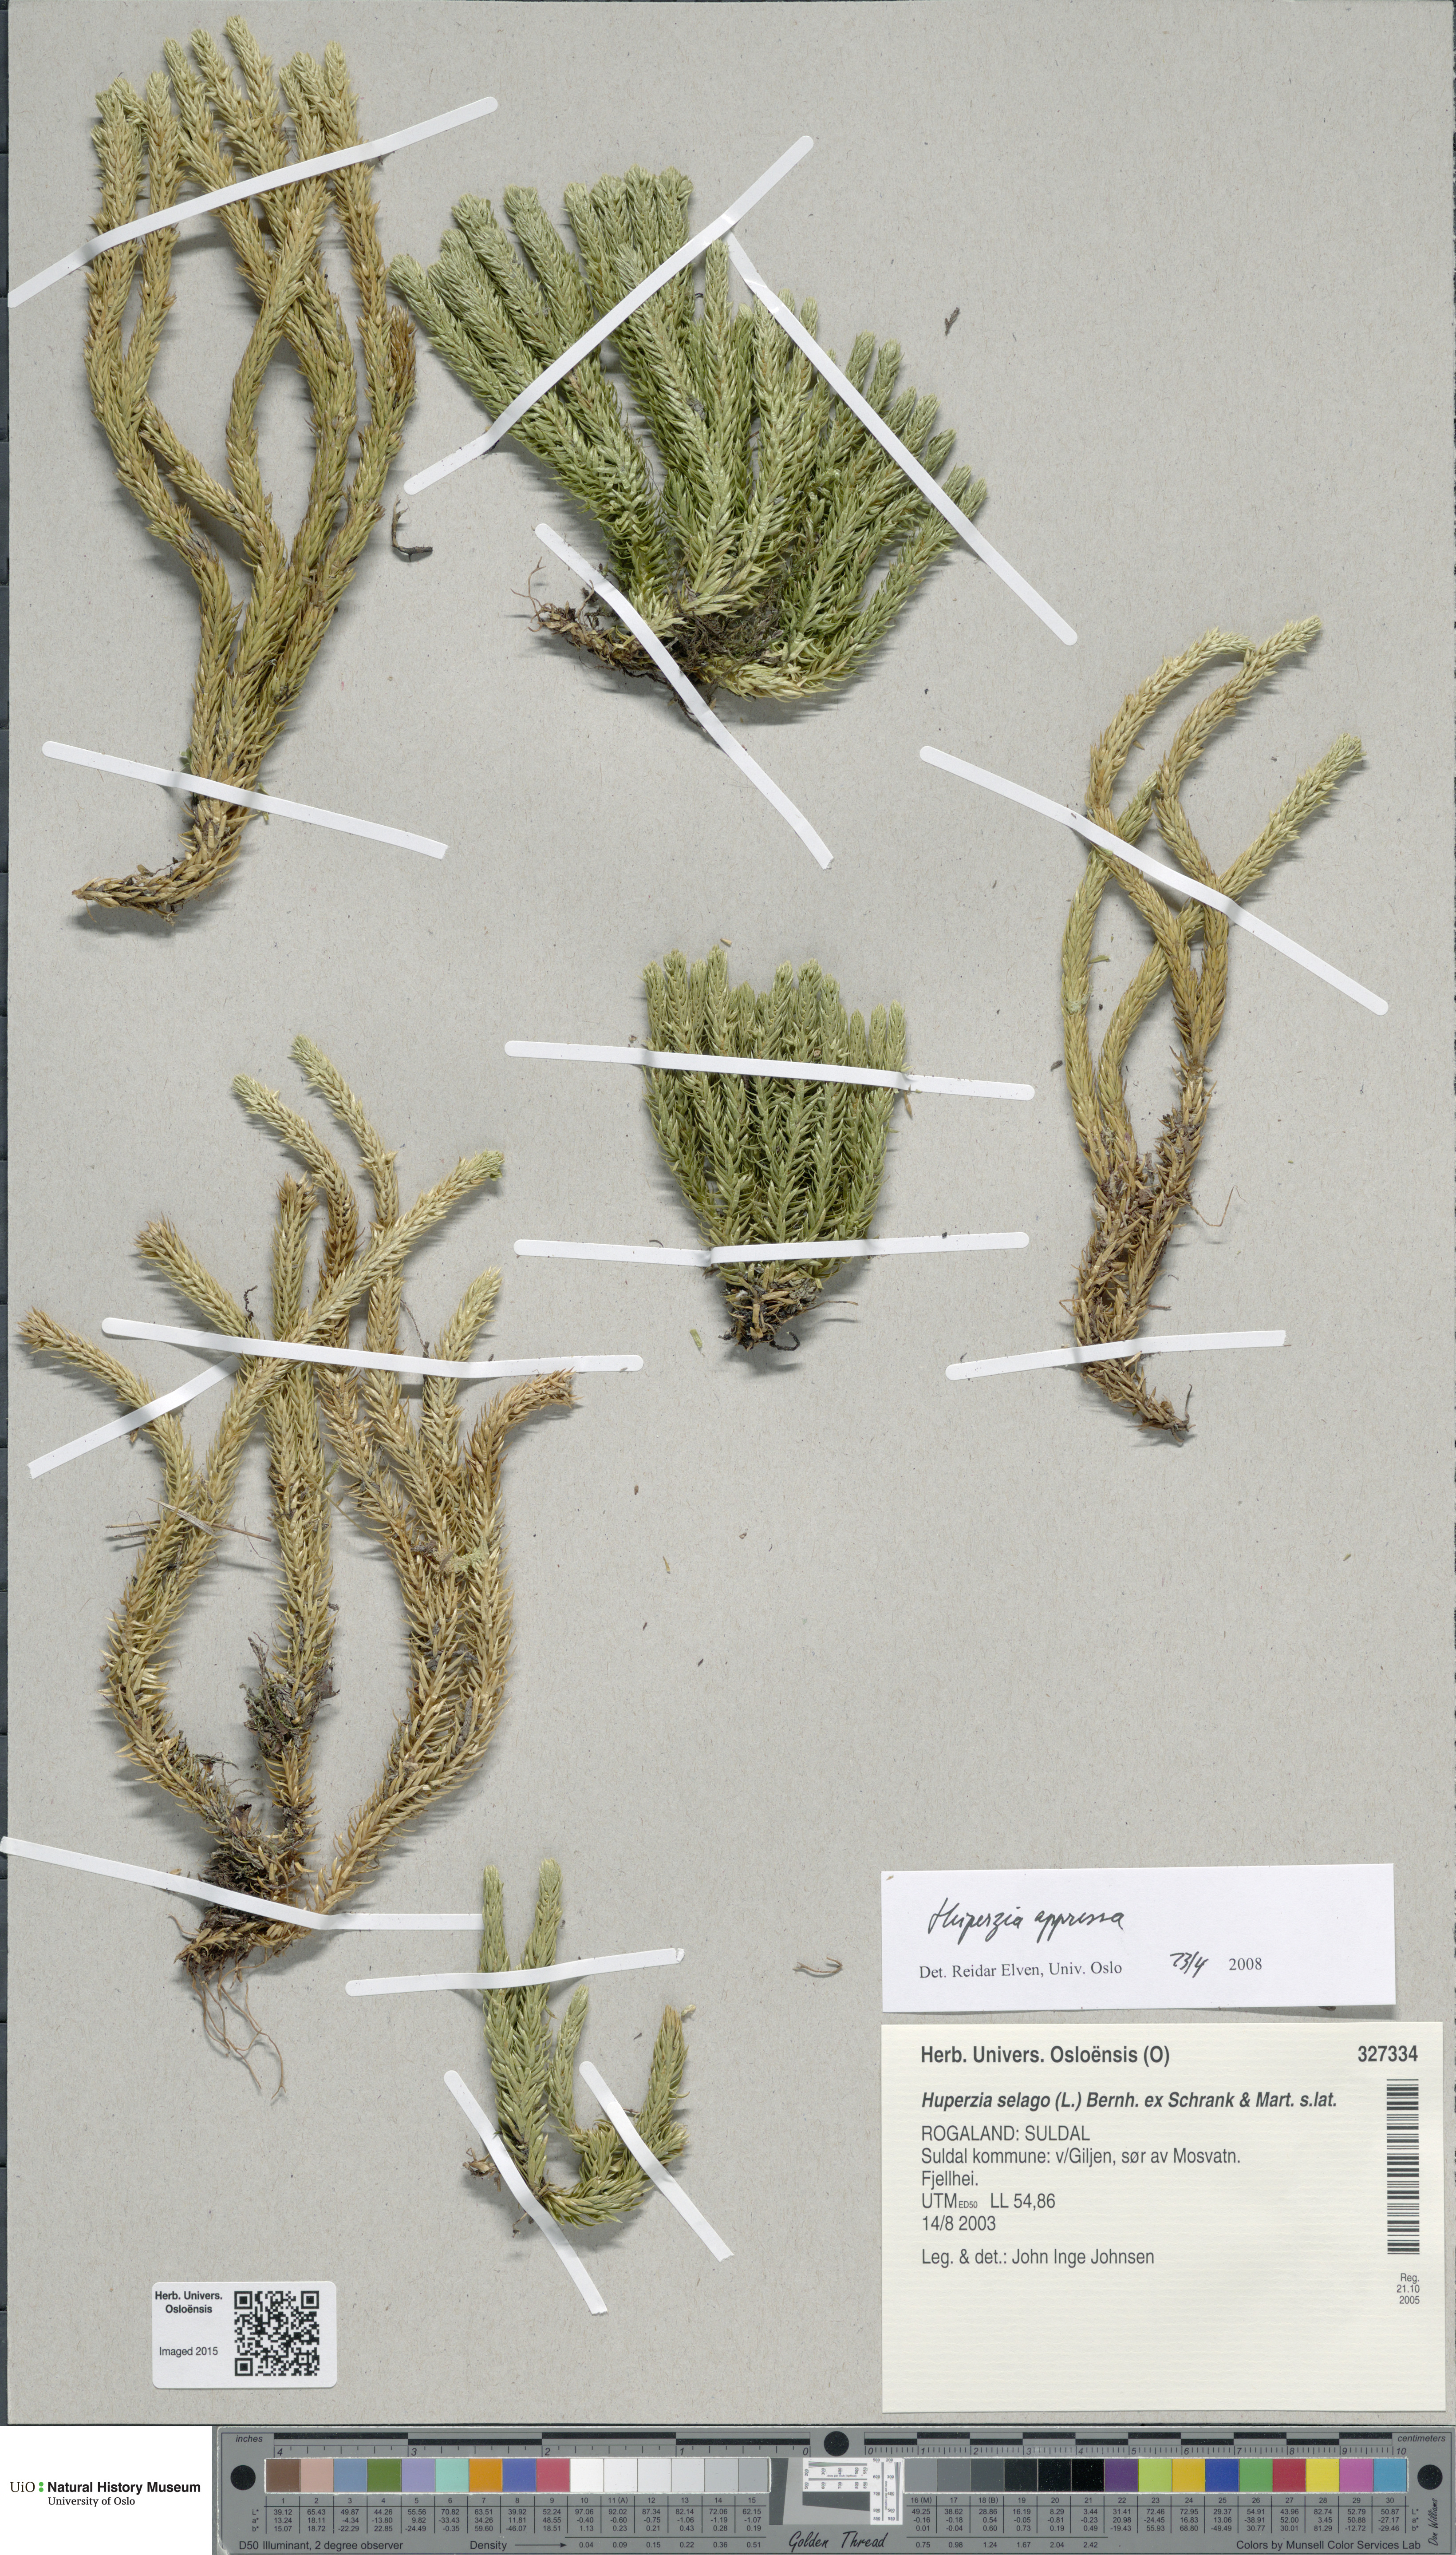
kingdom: Plantae
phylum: Tracheophyta
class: Lycopodiopsida
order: Lycopodiales
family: Lycopodiaceae
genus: Huperzia
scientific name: Huperzia selago
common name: Northern firmoss
